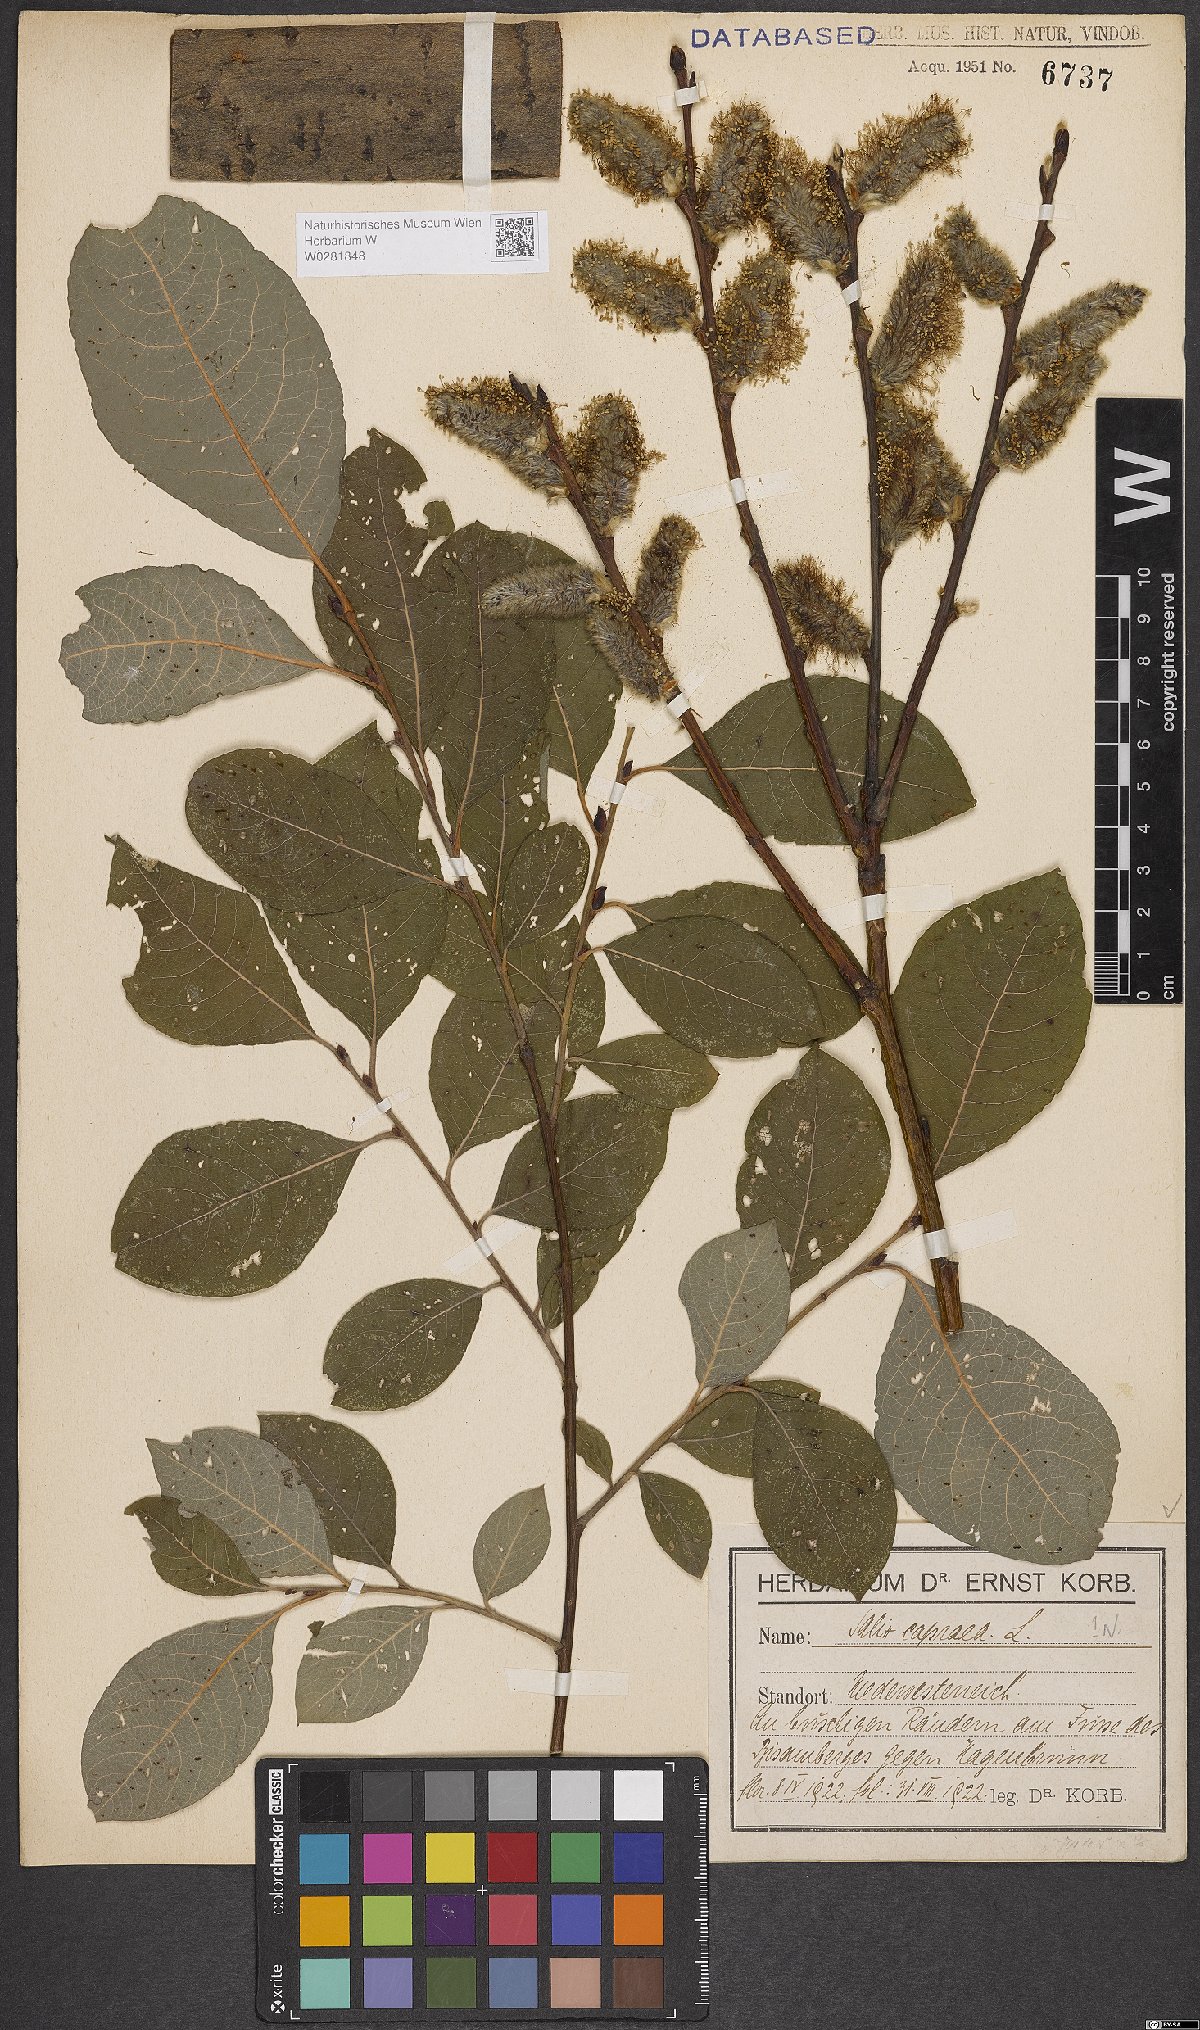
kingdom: Plantae
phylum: Tracheophyta
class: Magnoliopsida
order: Malpighiales
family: Salicaceae
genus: Salix
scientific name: Salix caprea
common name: Goat willow
